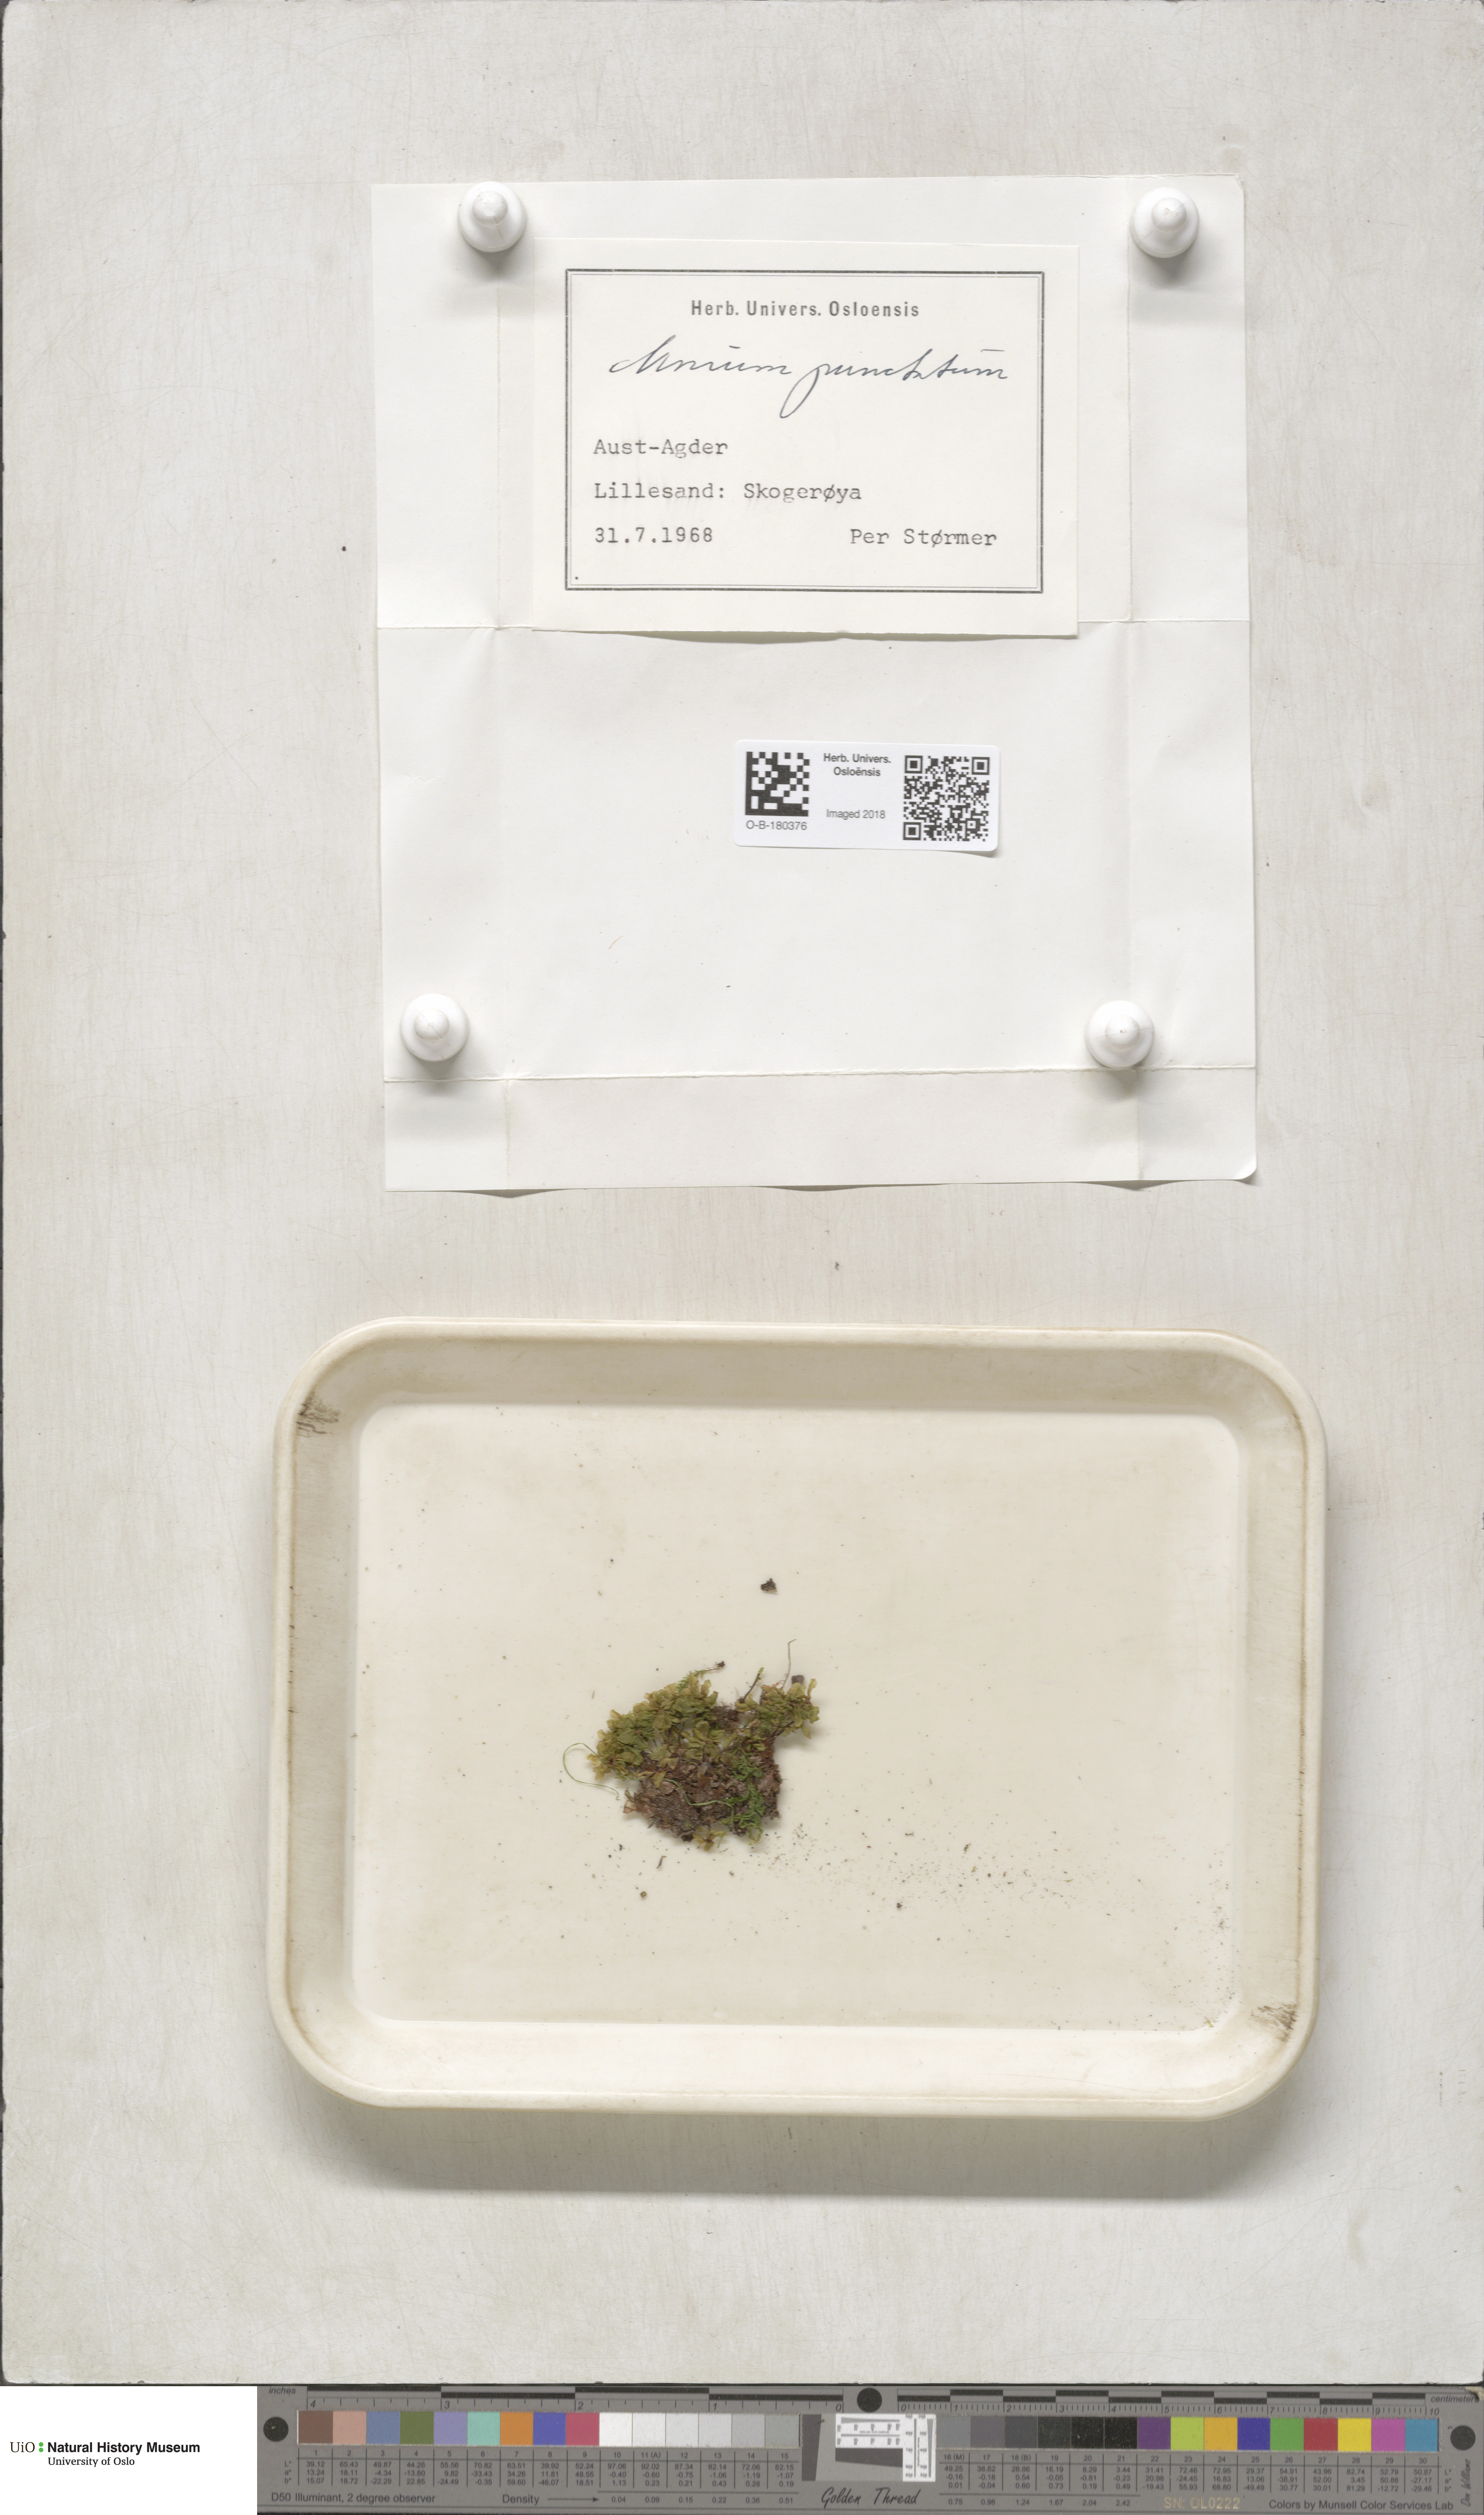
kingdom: Plantae
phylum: Bryophyta
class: Bryopsida
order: Bryales
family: Mniaceae
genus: Rhizomnium
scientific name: Rhizomnium punctatum
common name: Dotted leafy moss
